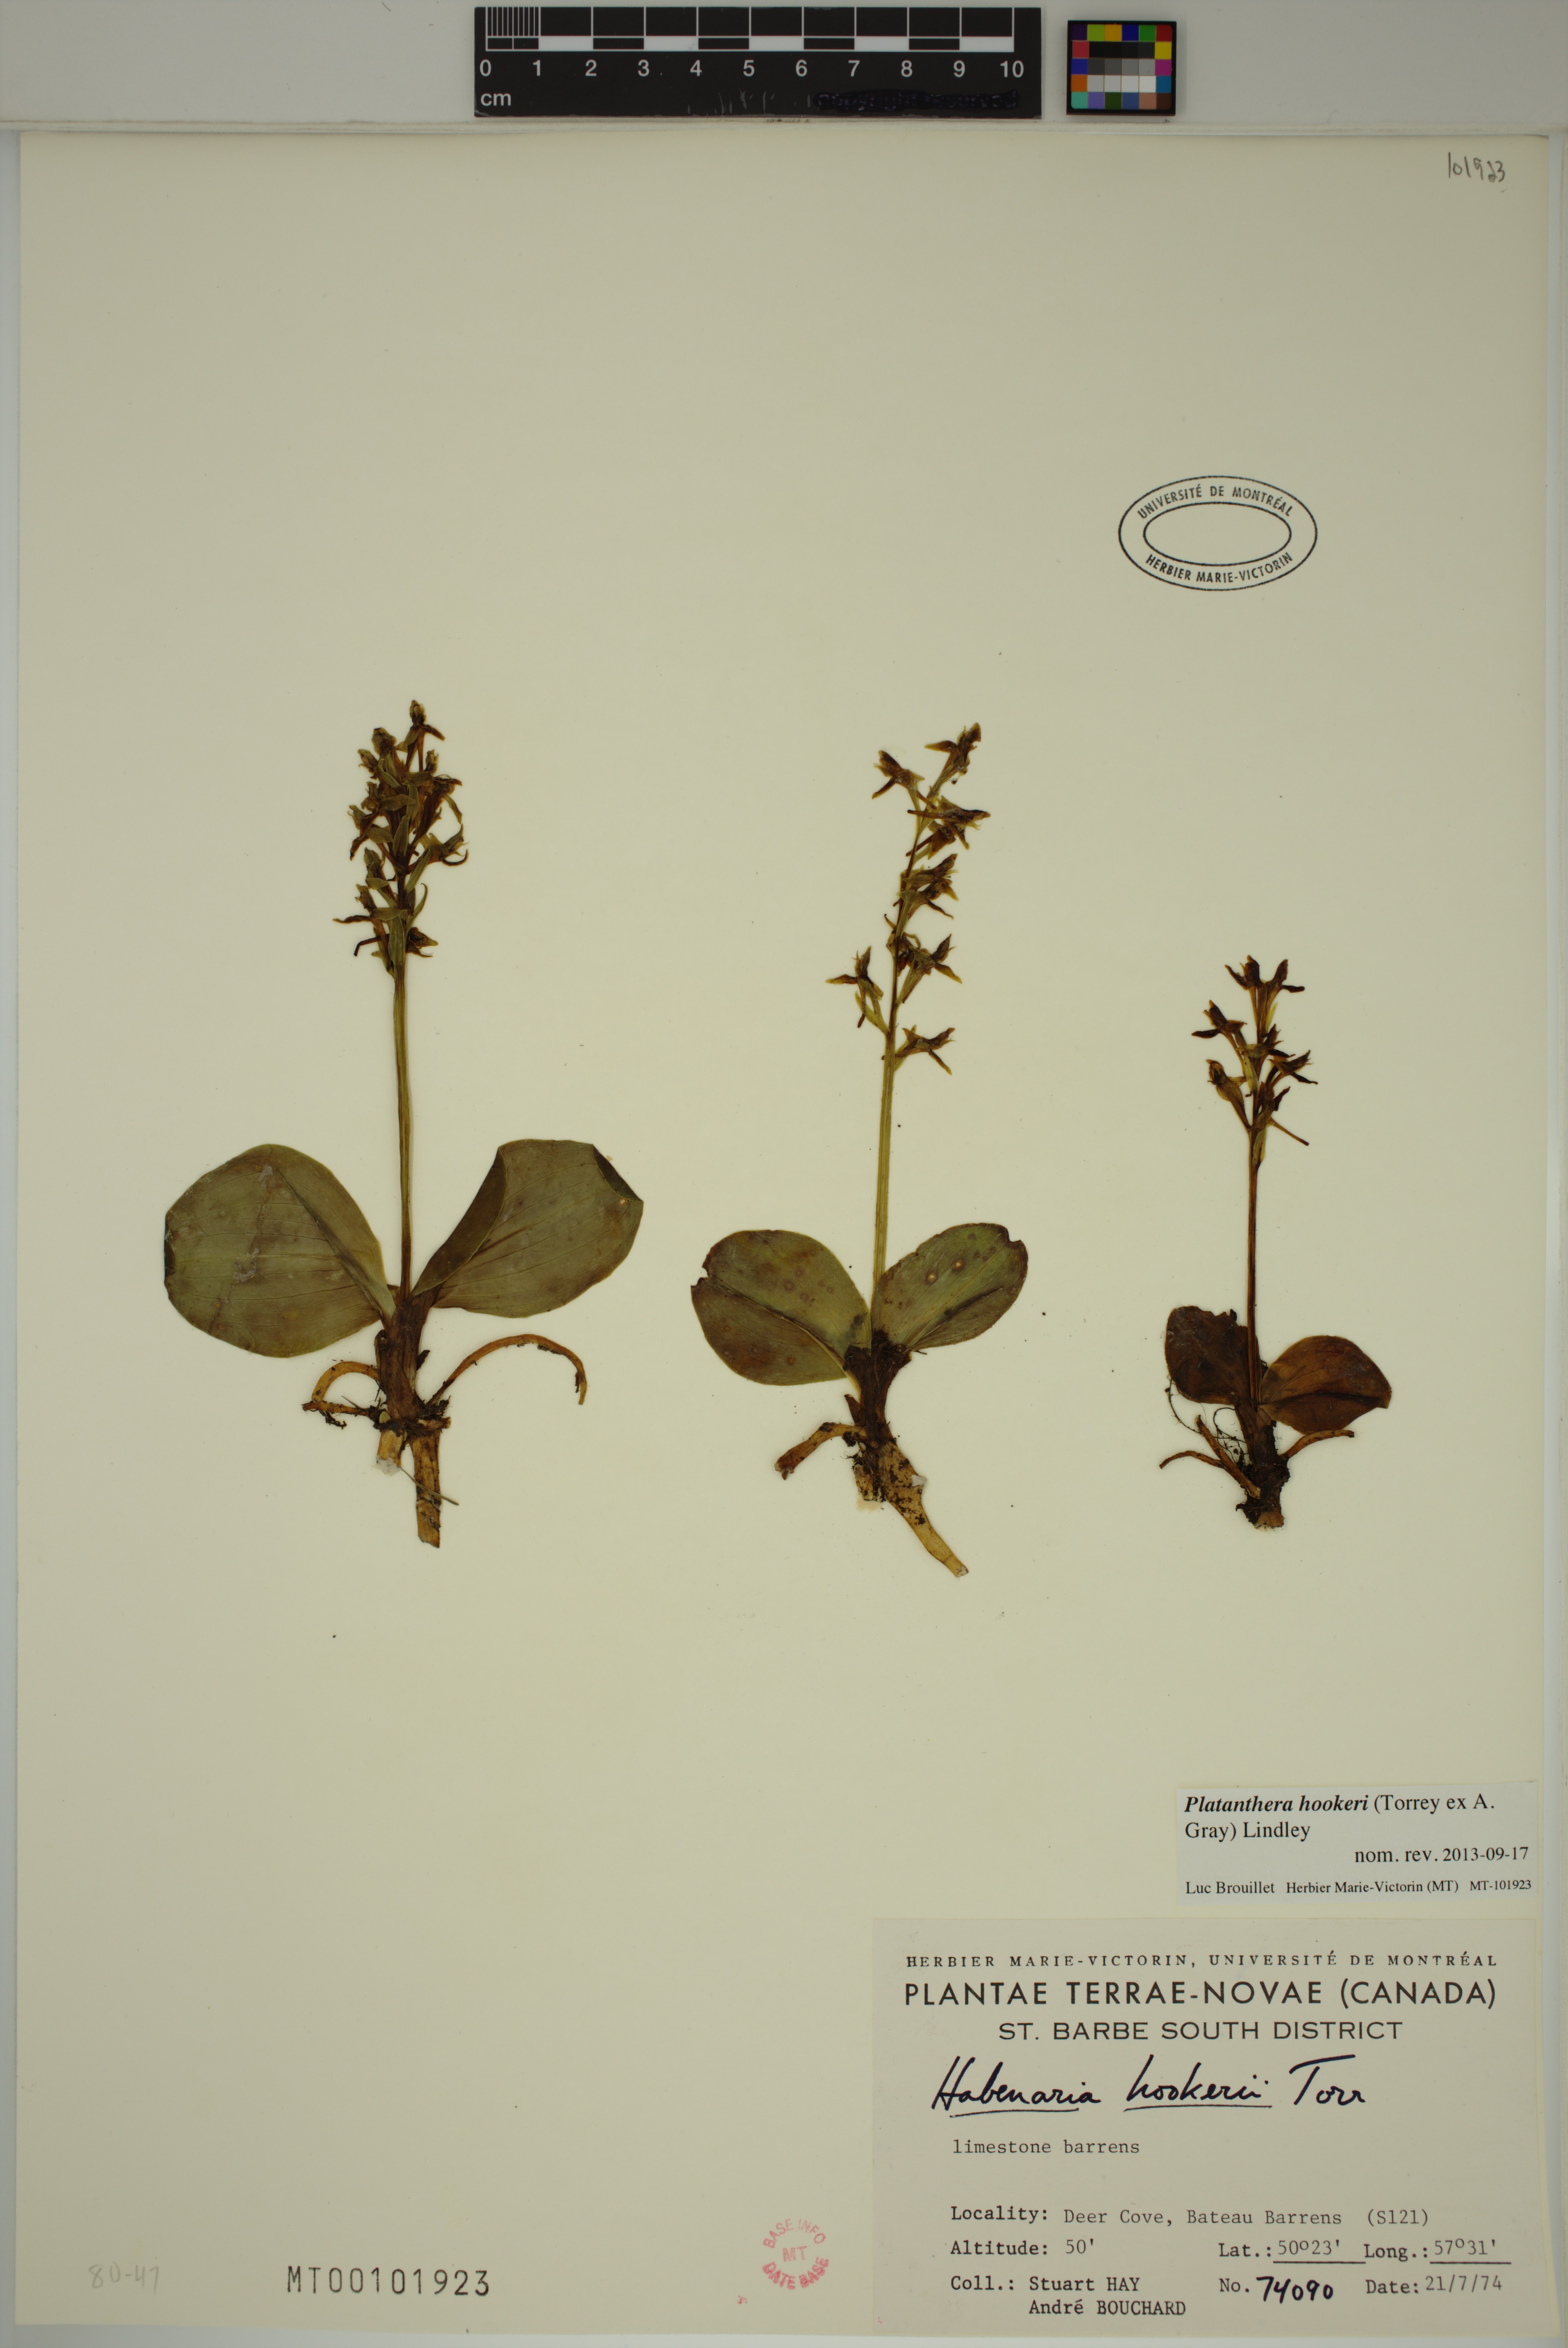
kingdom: Plantae
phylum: Tracheophyta
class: Liliopsida
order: Asparagales
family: Orchidaceae
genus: Platanthera
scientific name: Platanthera hookeri
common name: Hooker's orchid
